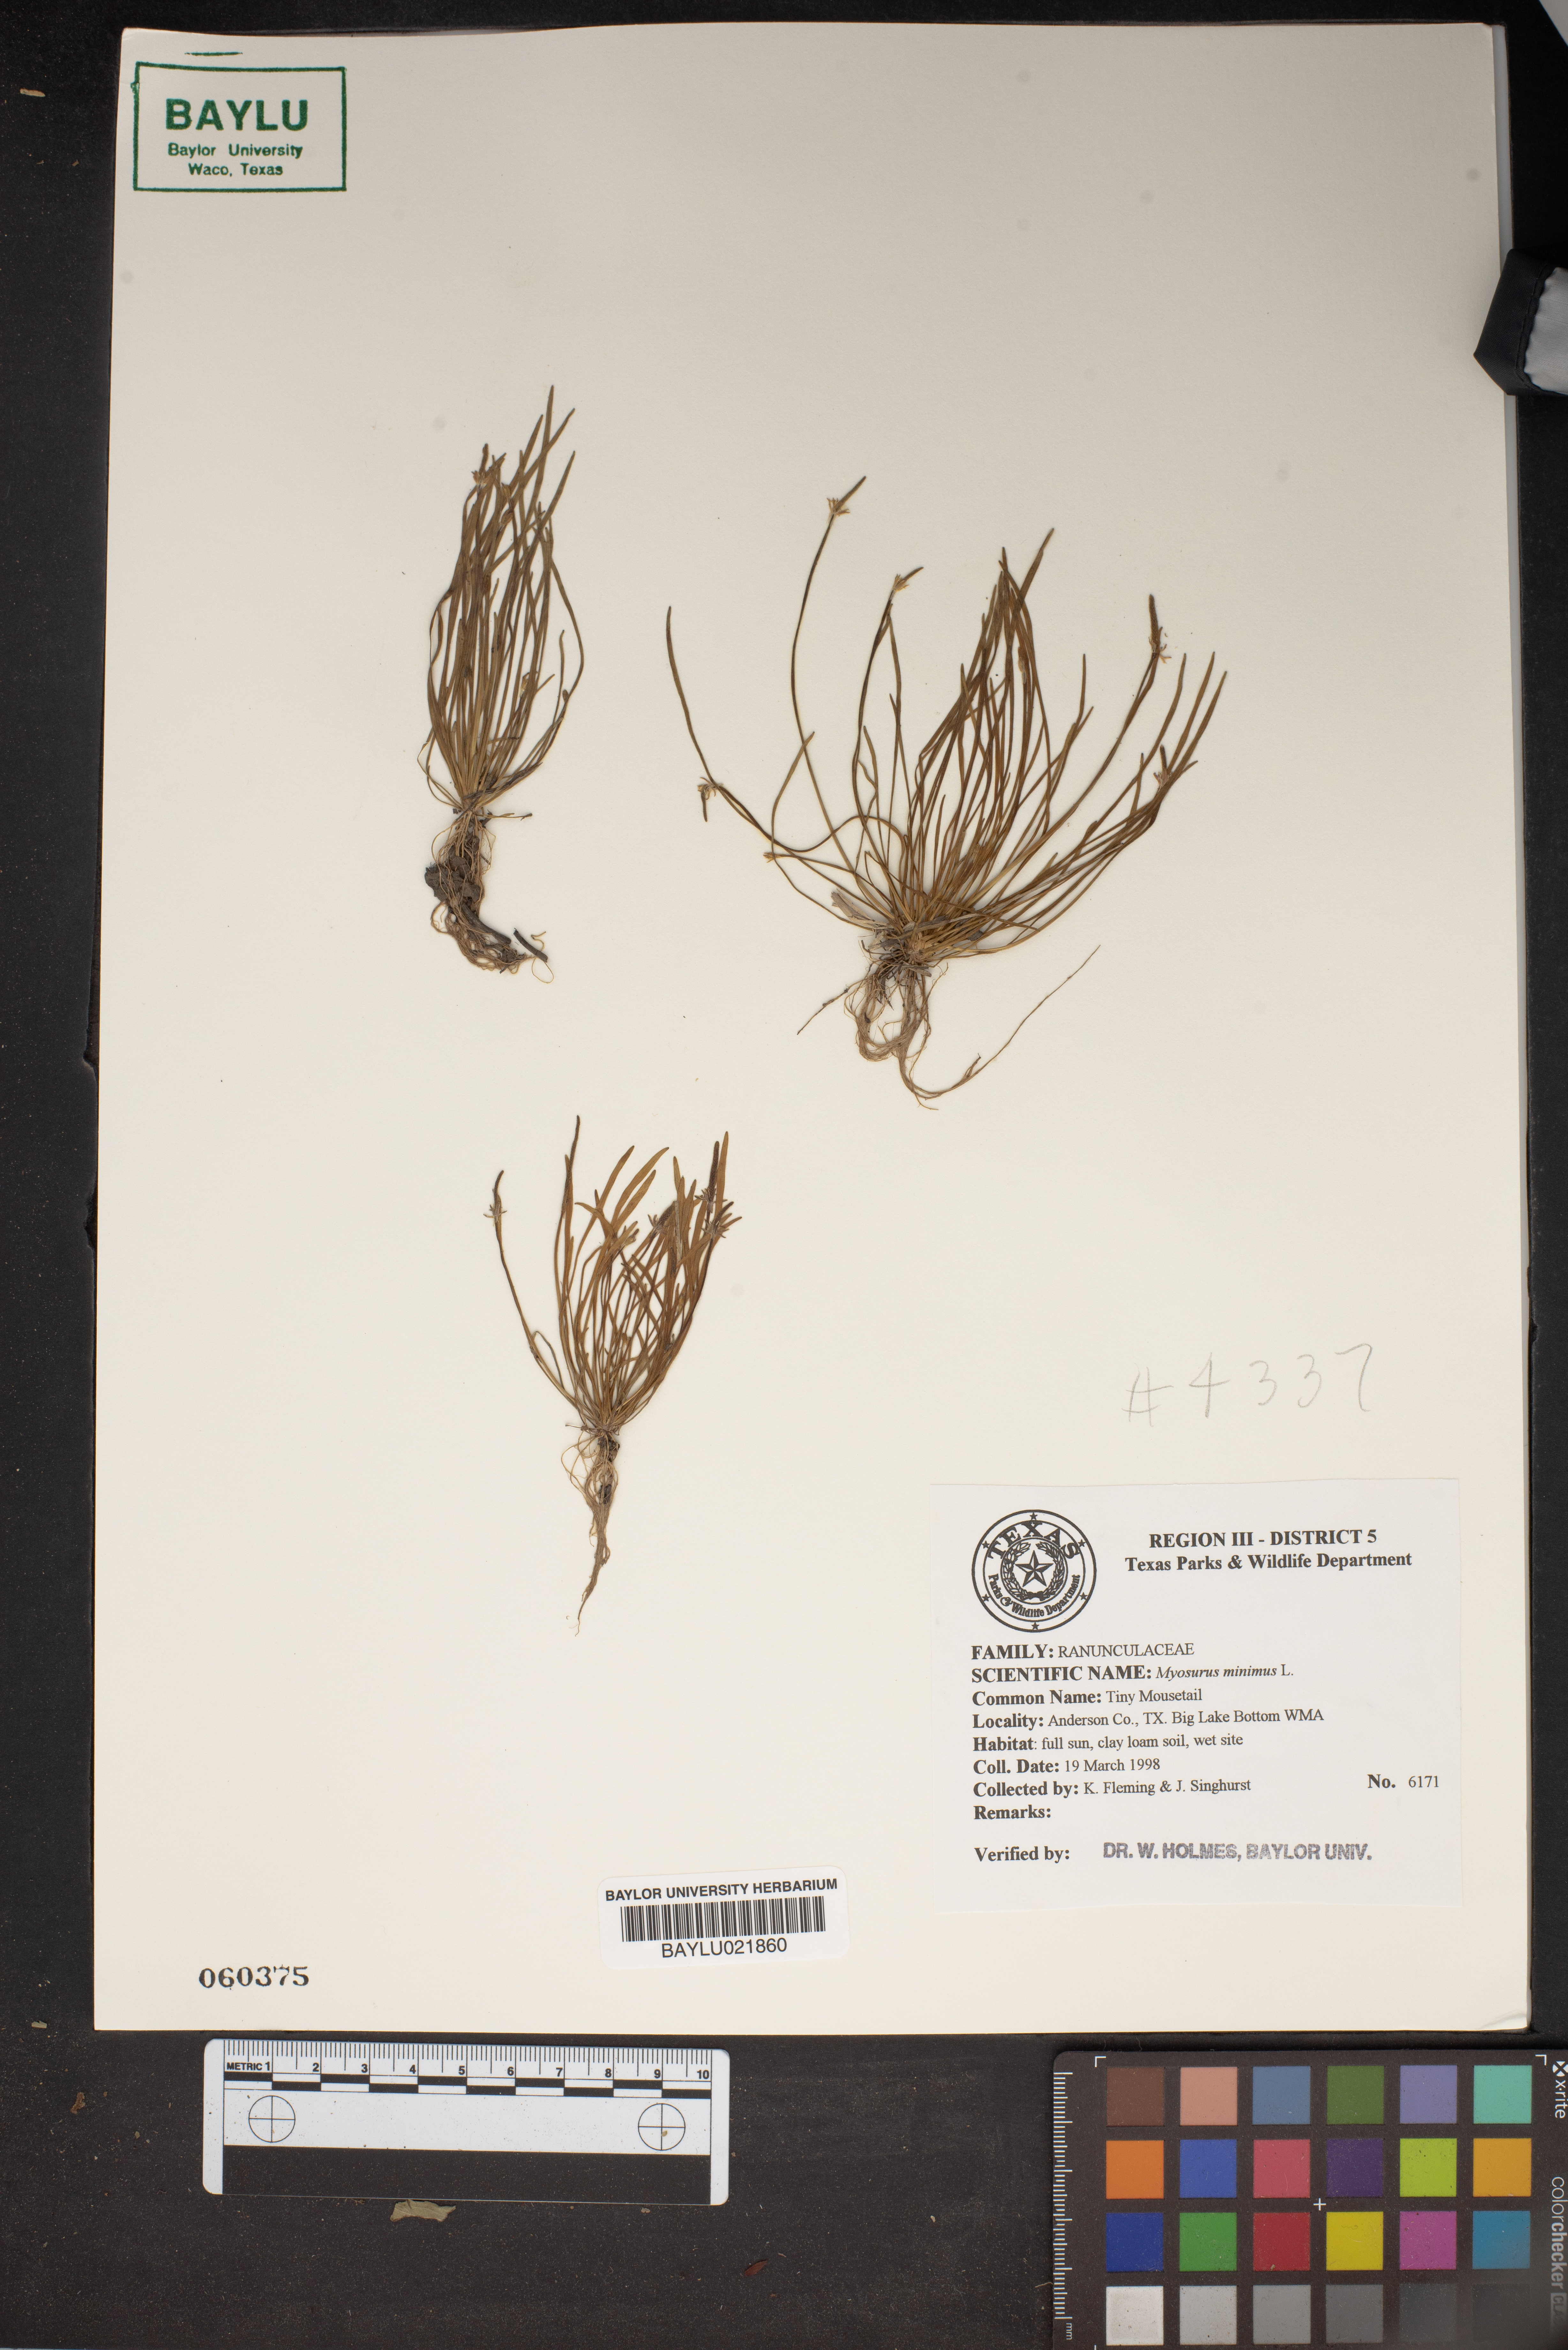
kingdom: Plantae
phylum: Tracheophyta
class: Magnoliopsida
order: Ranunculales
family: Ranunculaceae
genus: Myosurus
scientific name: Myosurus minimus
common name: Mousetail
